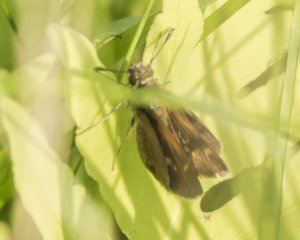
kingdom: Animalia
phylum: Arthropoda
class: Insecta
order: Lepidoptera
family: Hesperiidae
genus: Polites
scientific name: Polites coras
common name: Peck's Skipper
